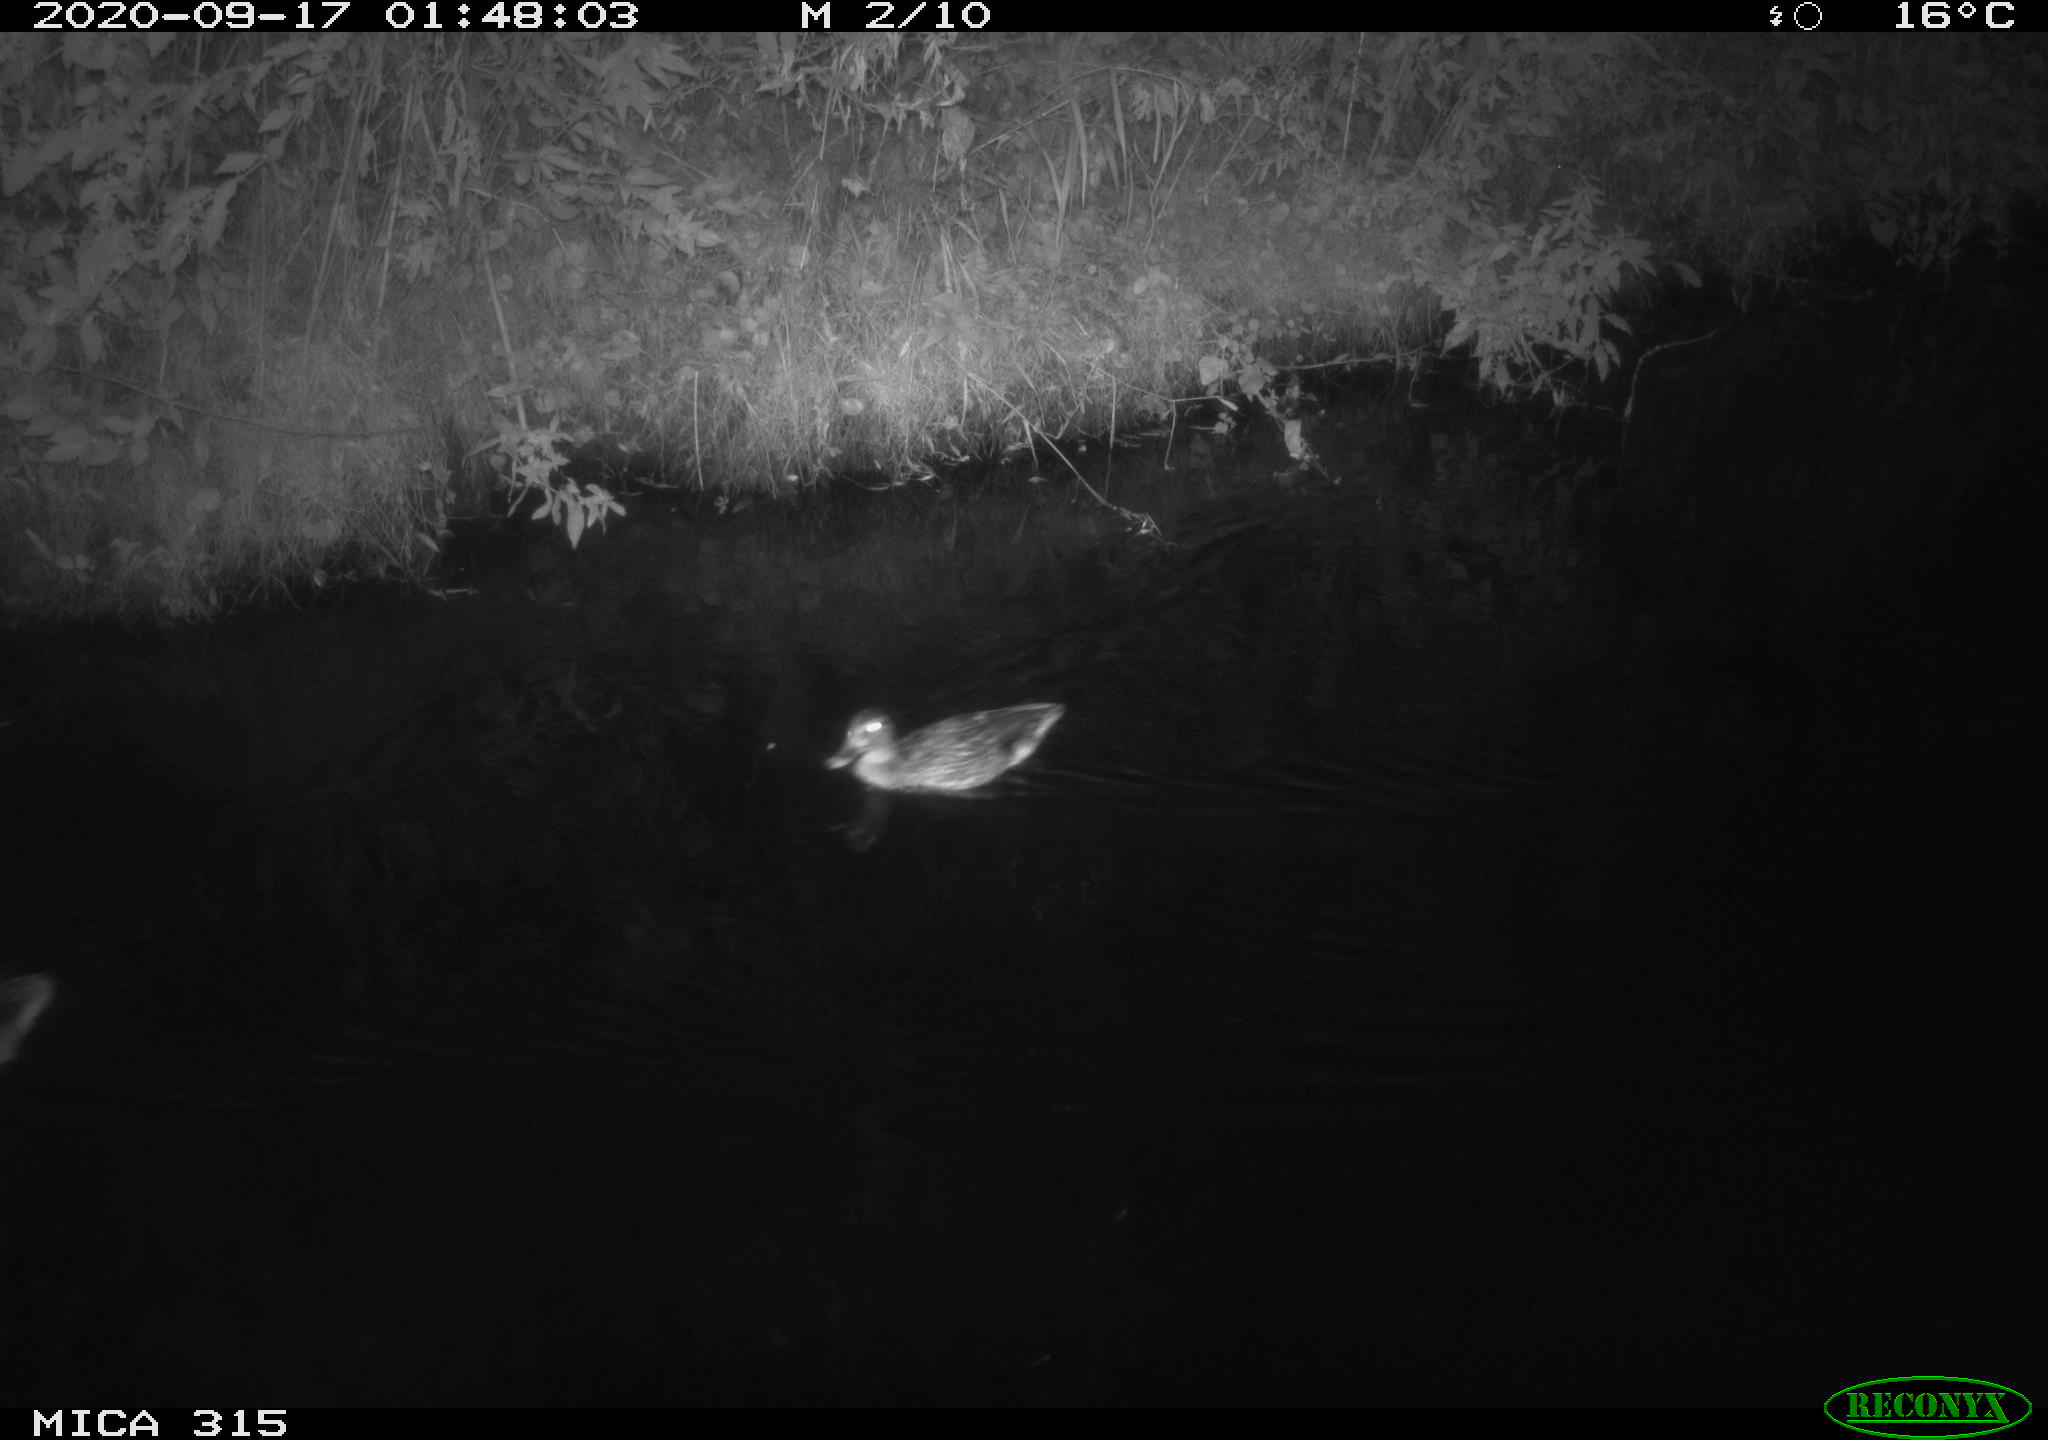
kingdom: Animalia
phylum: Chordata
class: Aves
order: Anseriformes
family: Anatidae
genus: Anas
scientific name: Anas platyrhynchos
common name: Mallard
